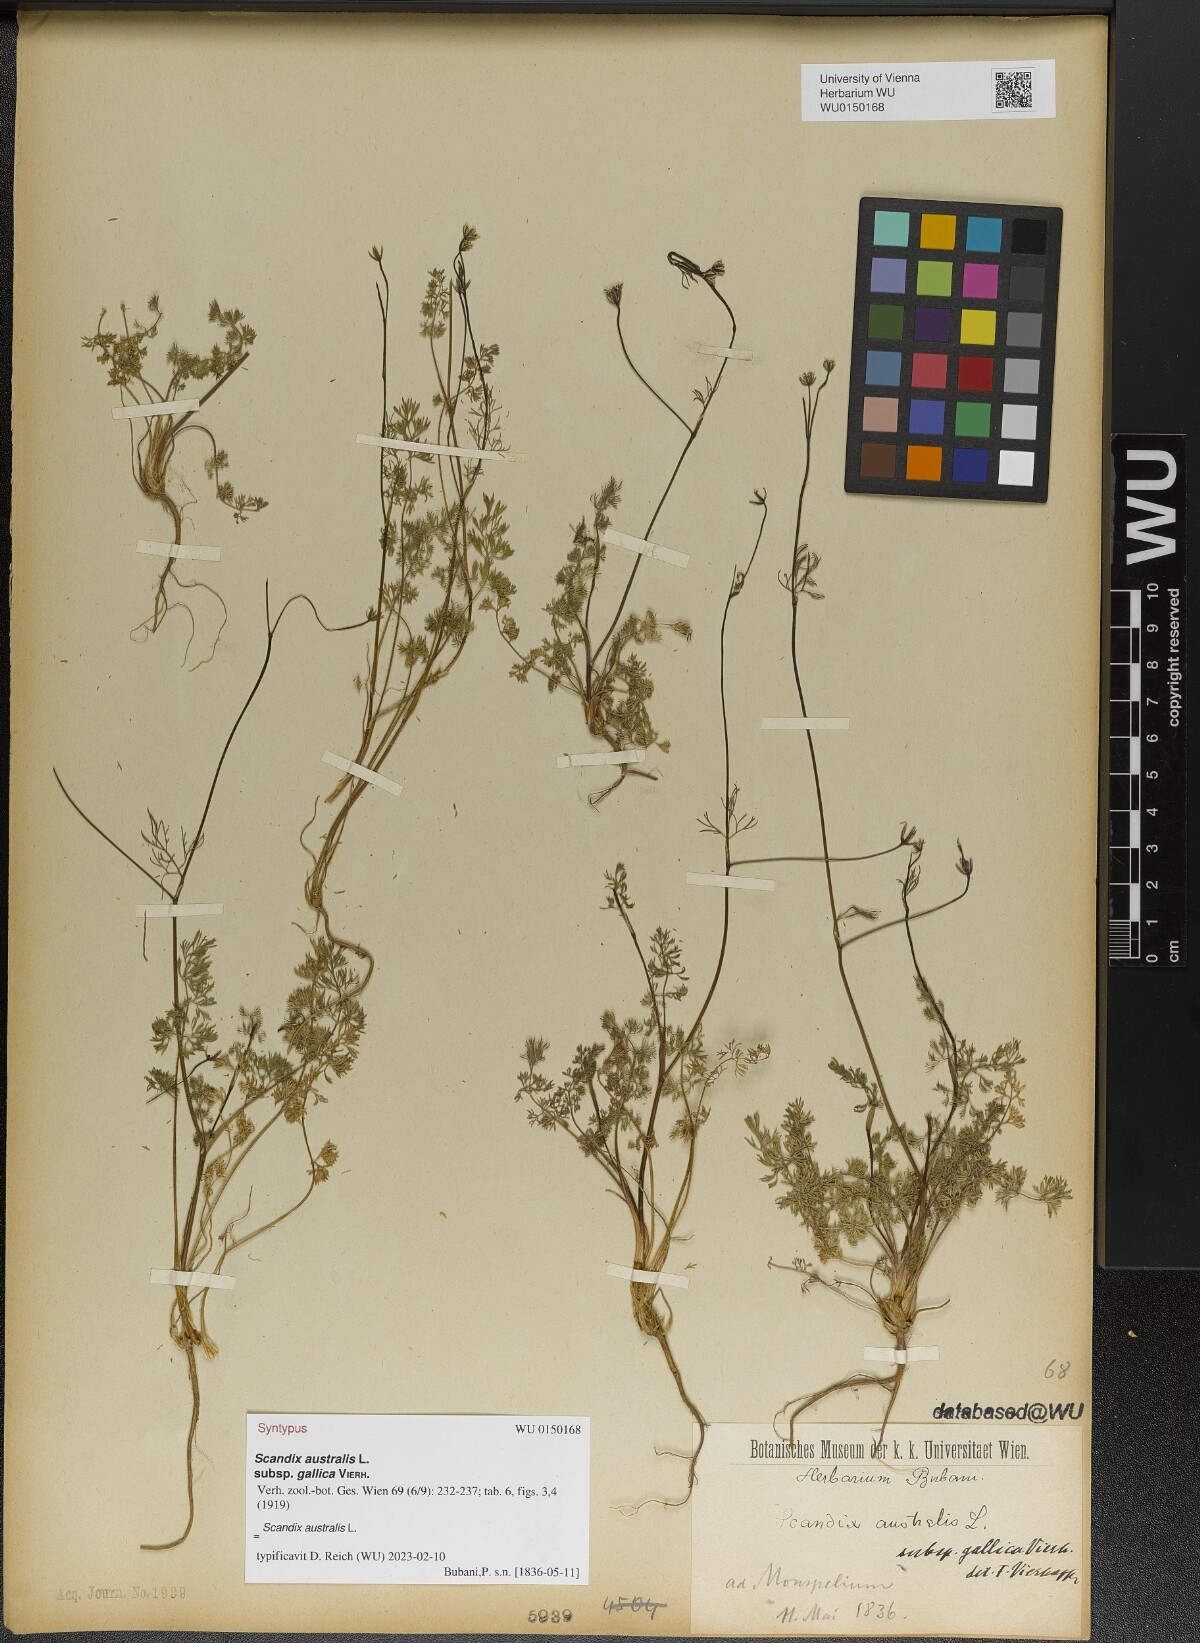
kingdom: Plantae
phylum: Tracheophyta
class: Magnoliopsida
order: Apiales
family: Apiaceae
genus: Scandix
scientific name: Scandix australis
